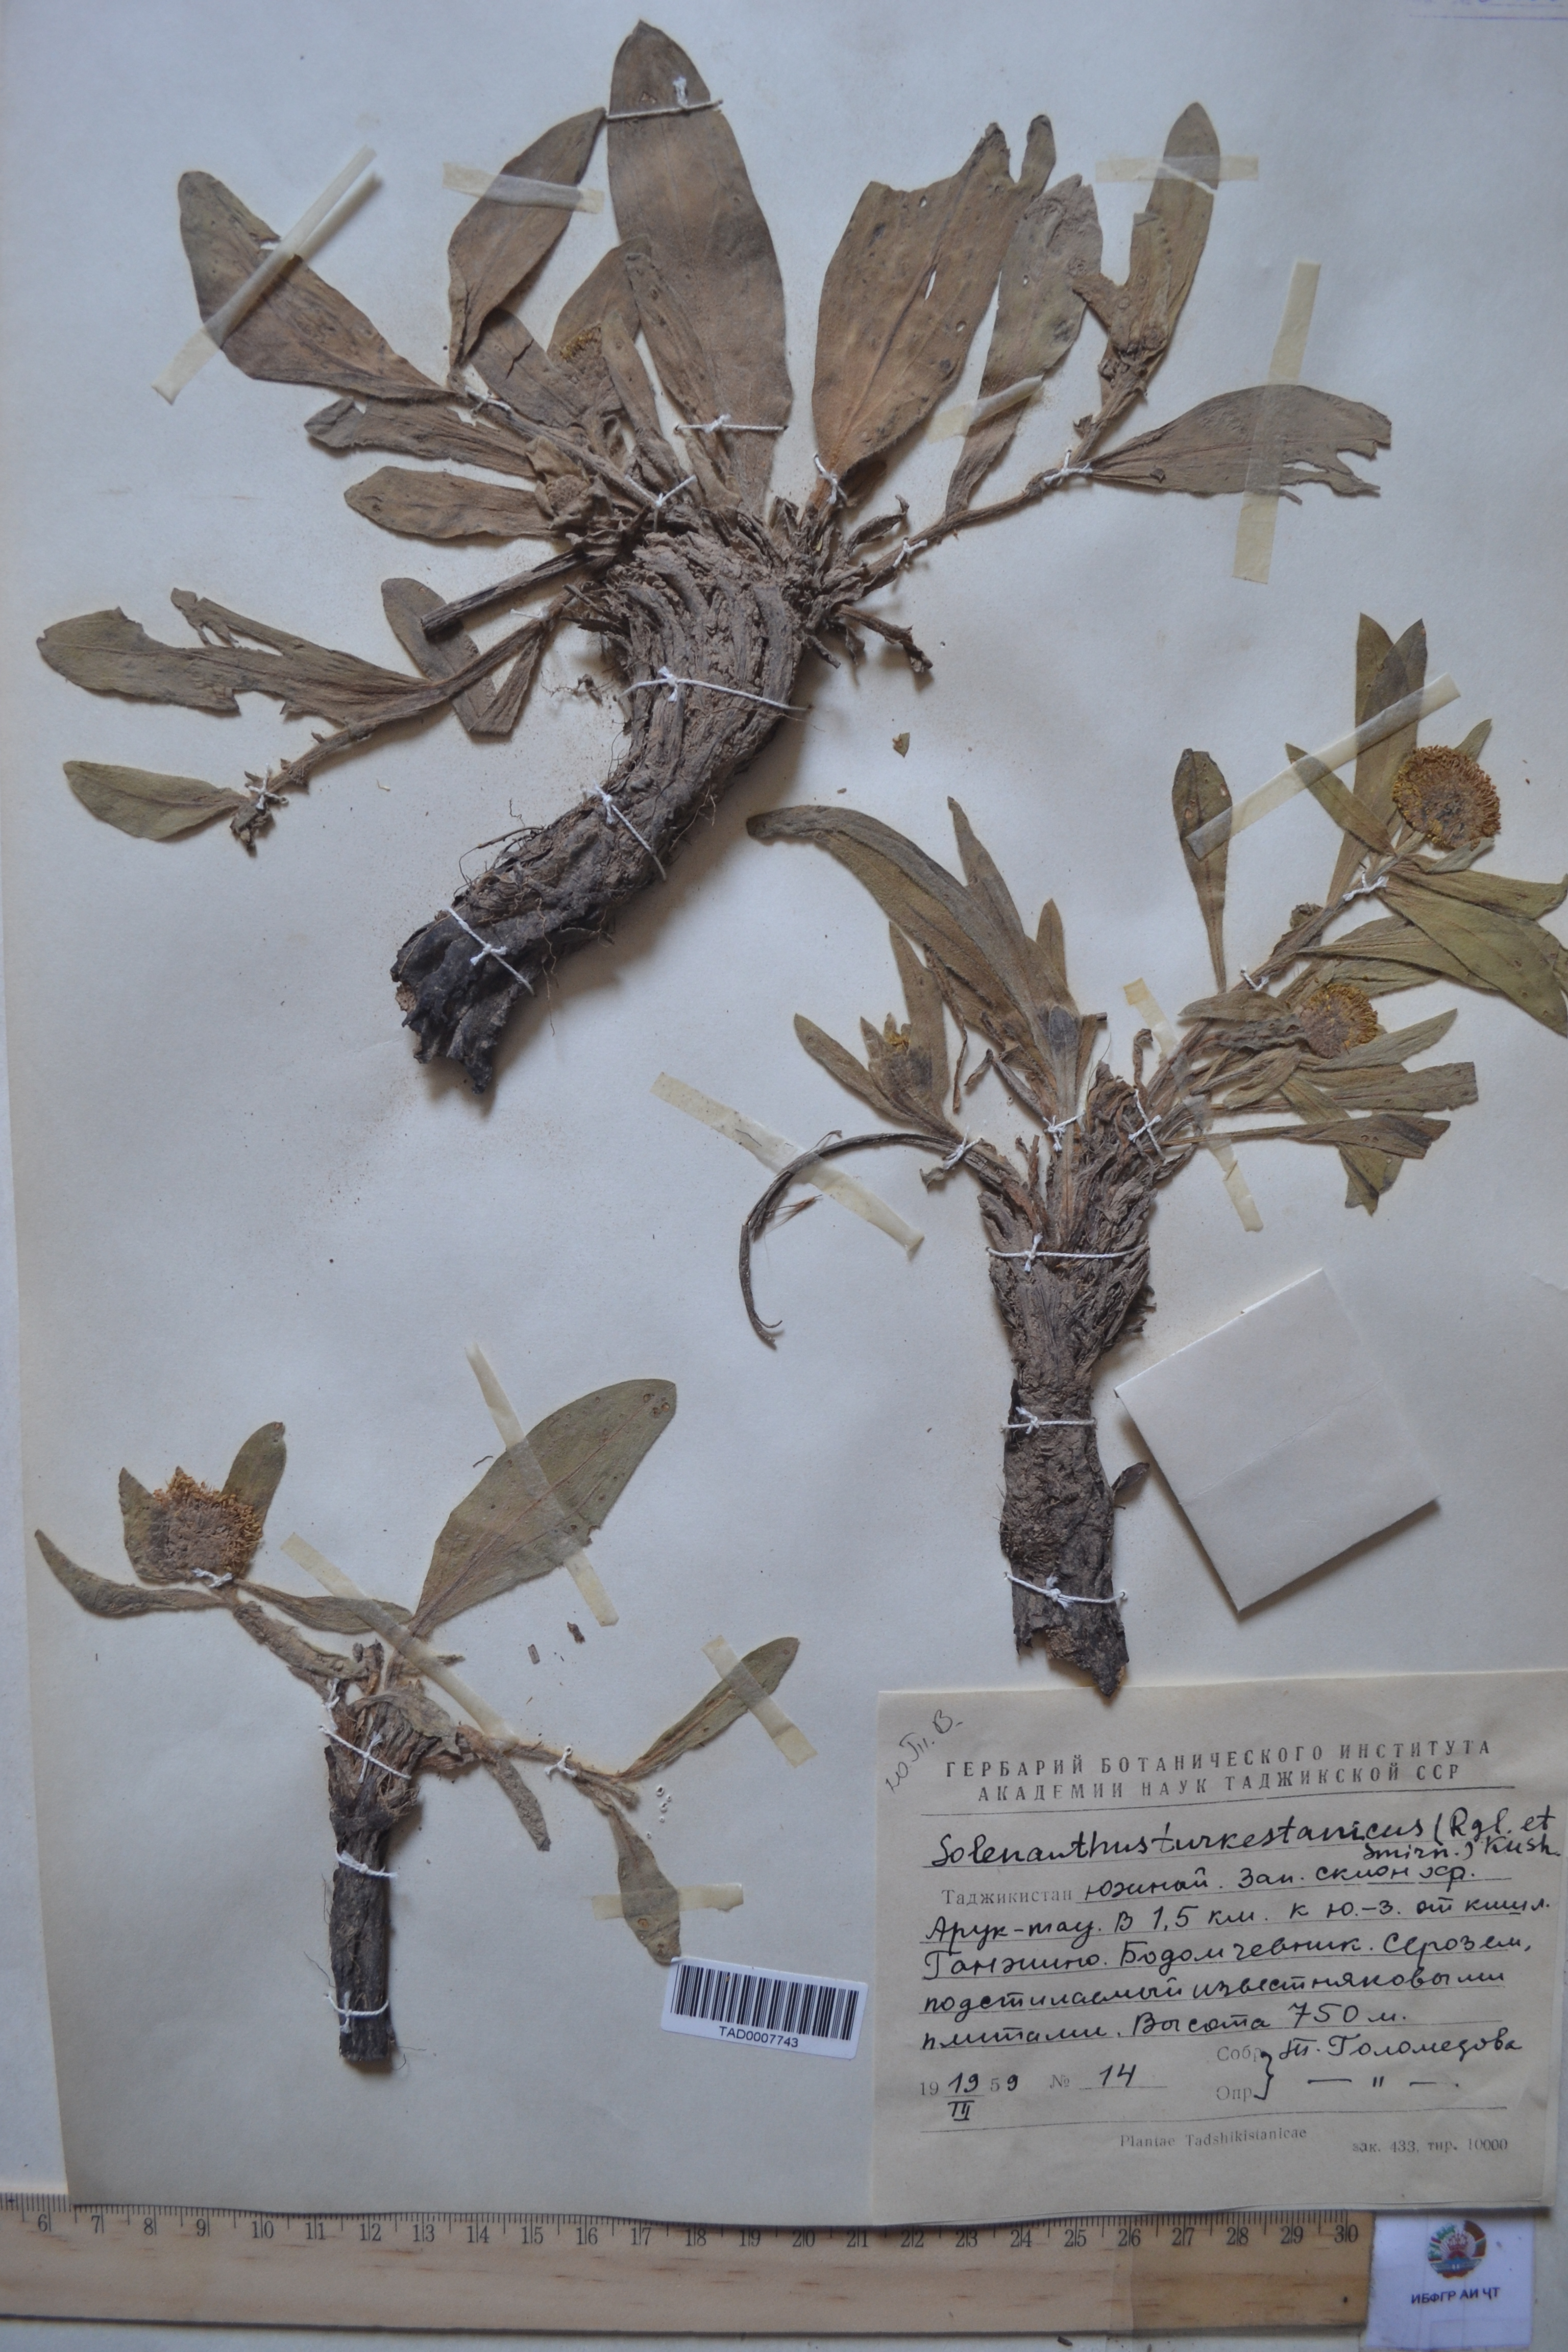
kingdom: Plantae
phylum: Tracheophyta
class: Magnoliopsida
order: Boraginales
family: Boraginaceae
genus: Solenanthus
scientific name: Solenanthus turkestanicus
